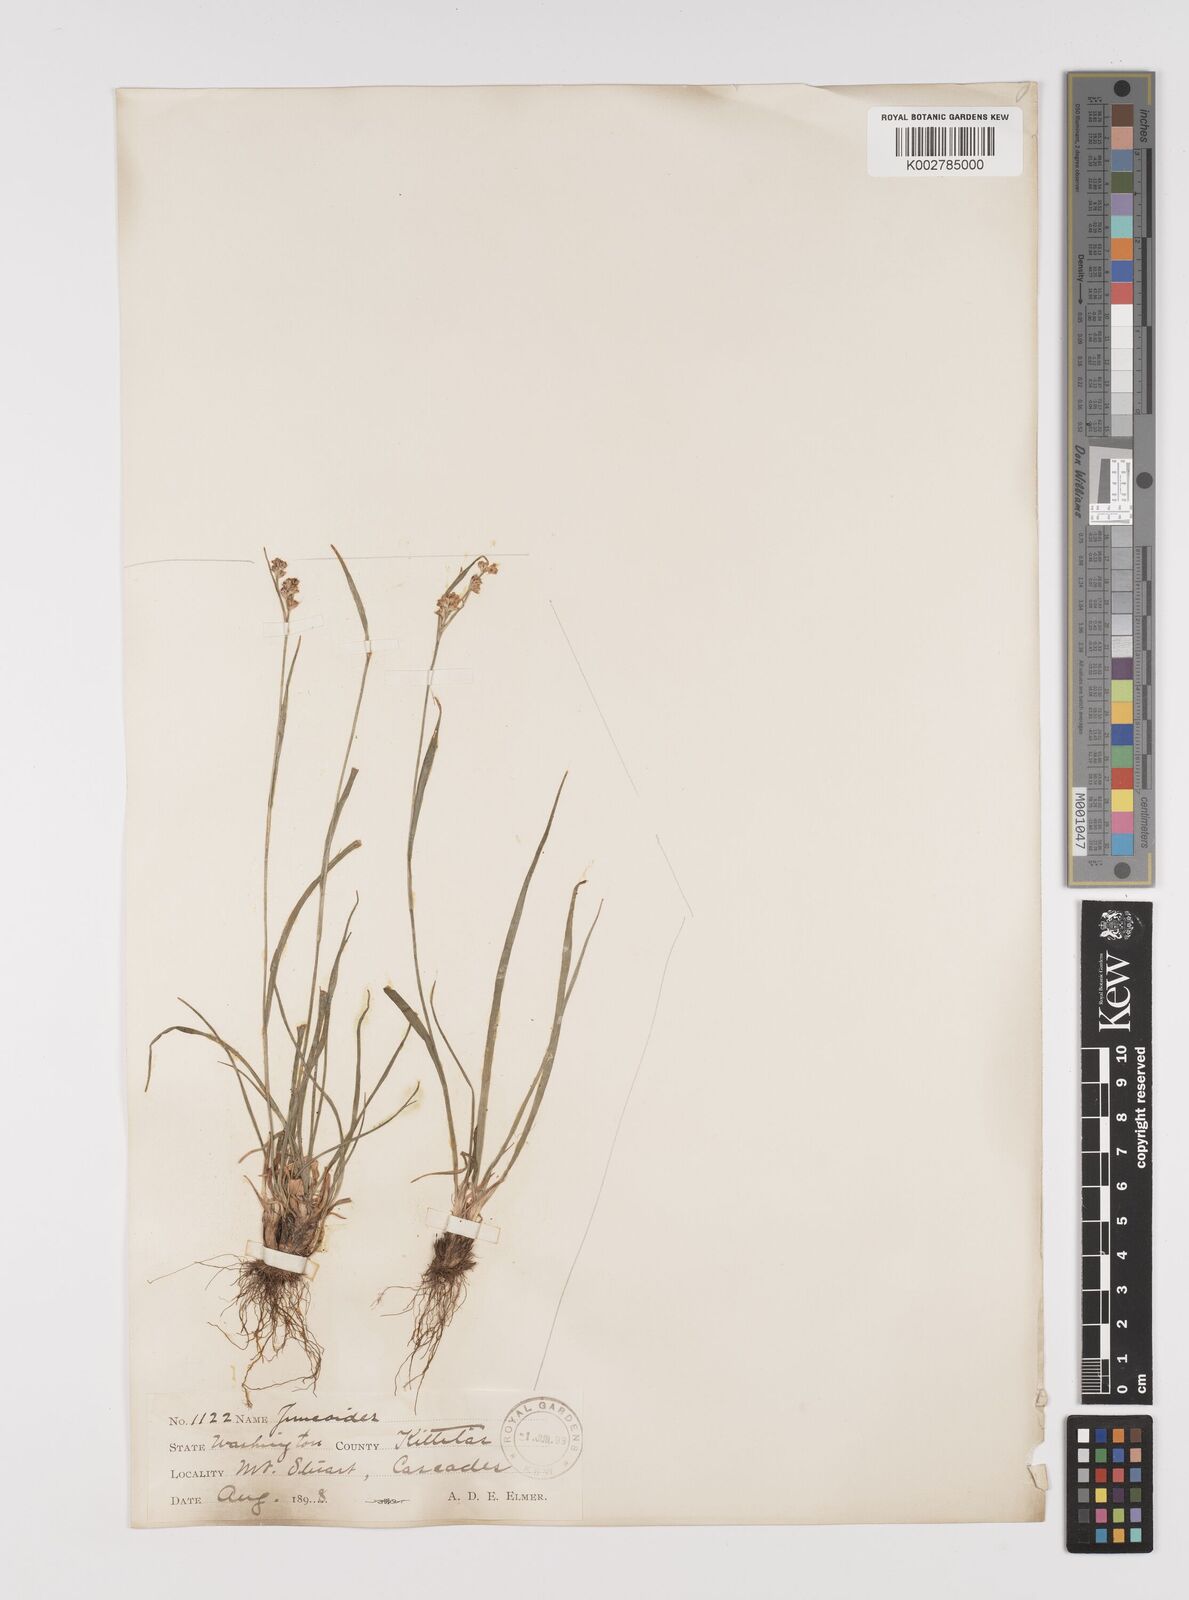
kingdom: Plantae
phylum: Tracheophyta
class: Liliopsida
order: Poales
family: Juncaceae
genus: Luzula
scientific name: Luzula parviflora
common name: Millet woodrush
